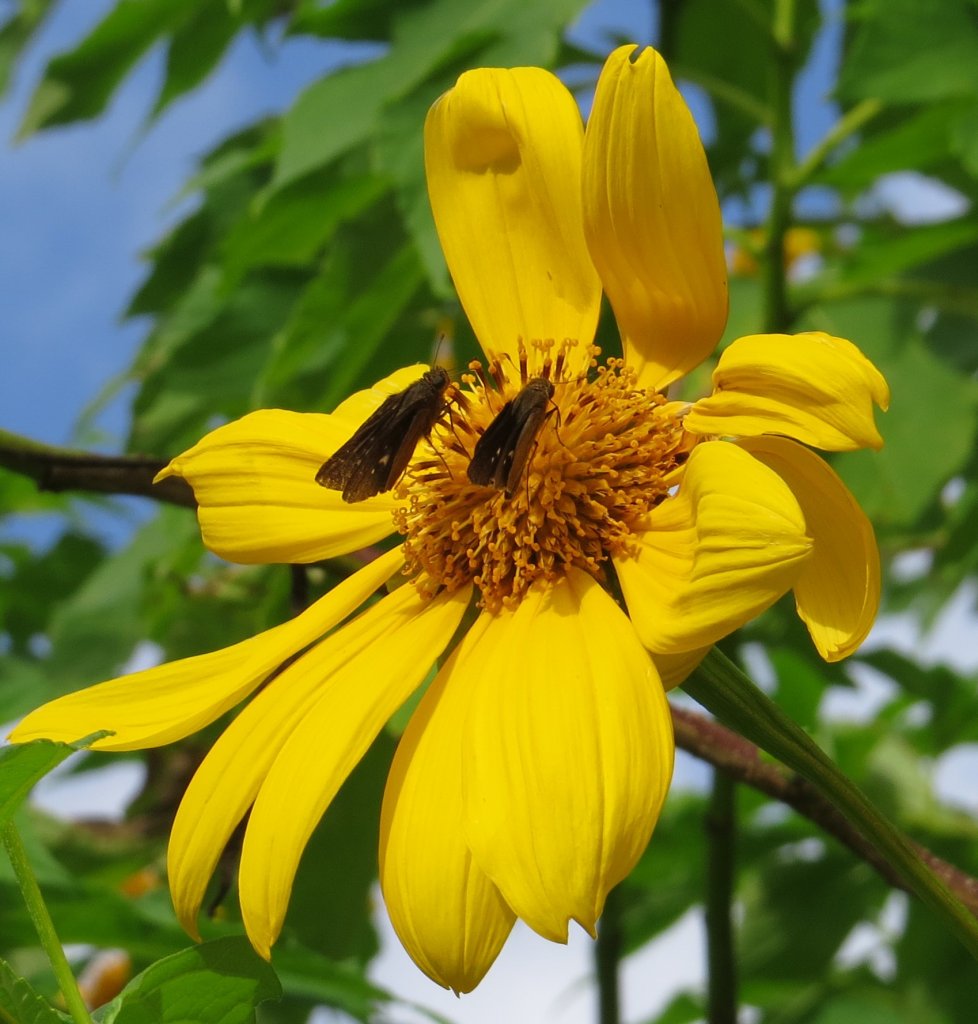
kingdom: Animalia
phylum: Arthropoda
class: Insecta
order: Lepidoptera
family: Hesperiidae
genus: Panoquina
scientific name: Panoquina ocola
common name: Ocola Skipper
